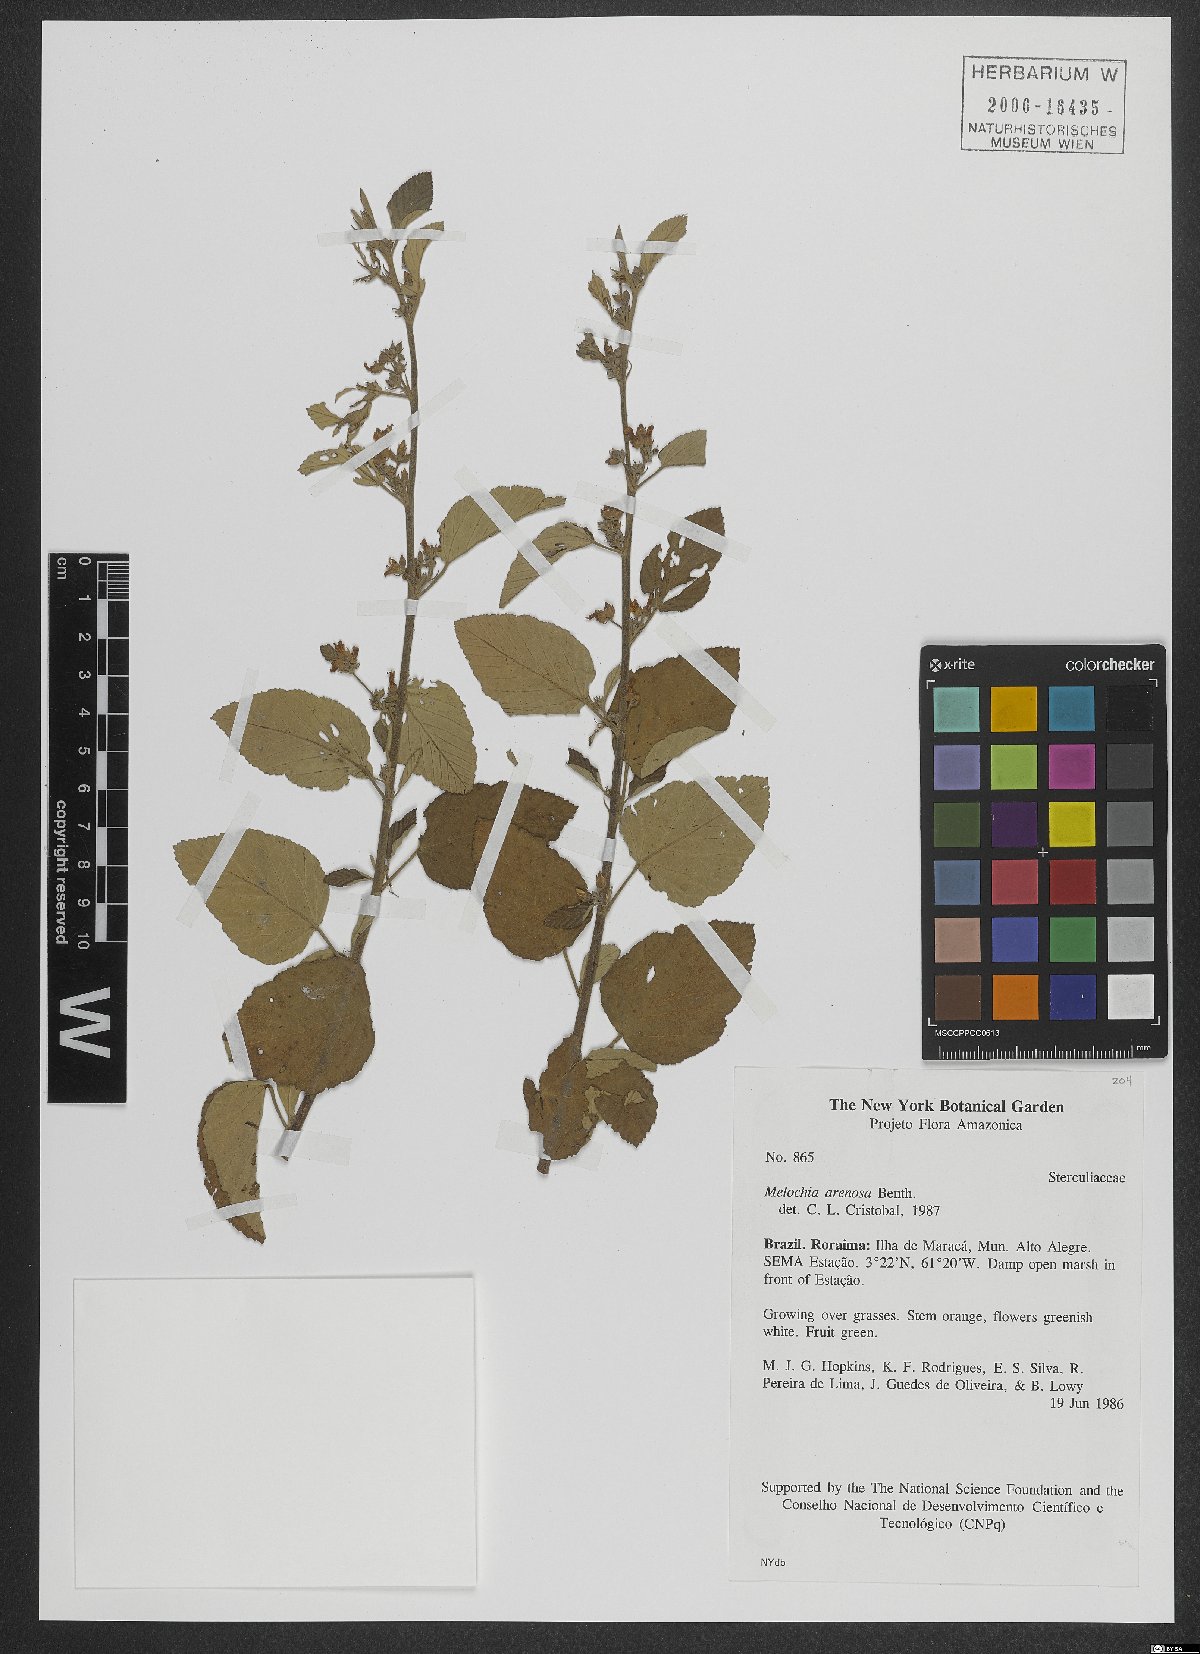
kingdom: Plantae
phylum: Tracheophyta
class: Magnoliopsida
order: Malvales
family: Malvaceae
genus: Melochia
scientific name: Melochia arenosa
